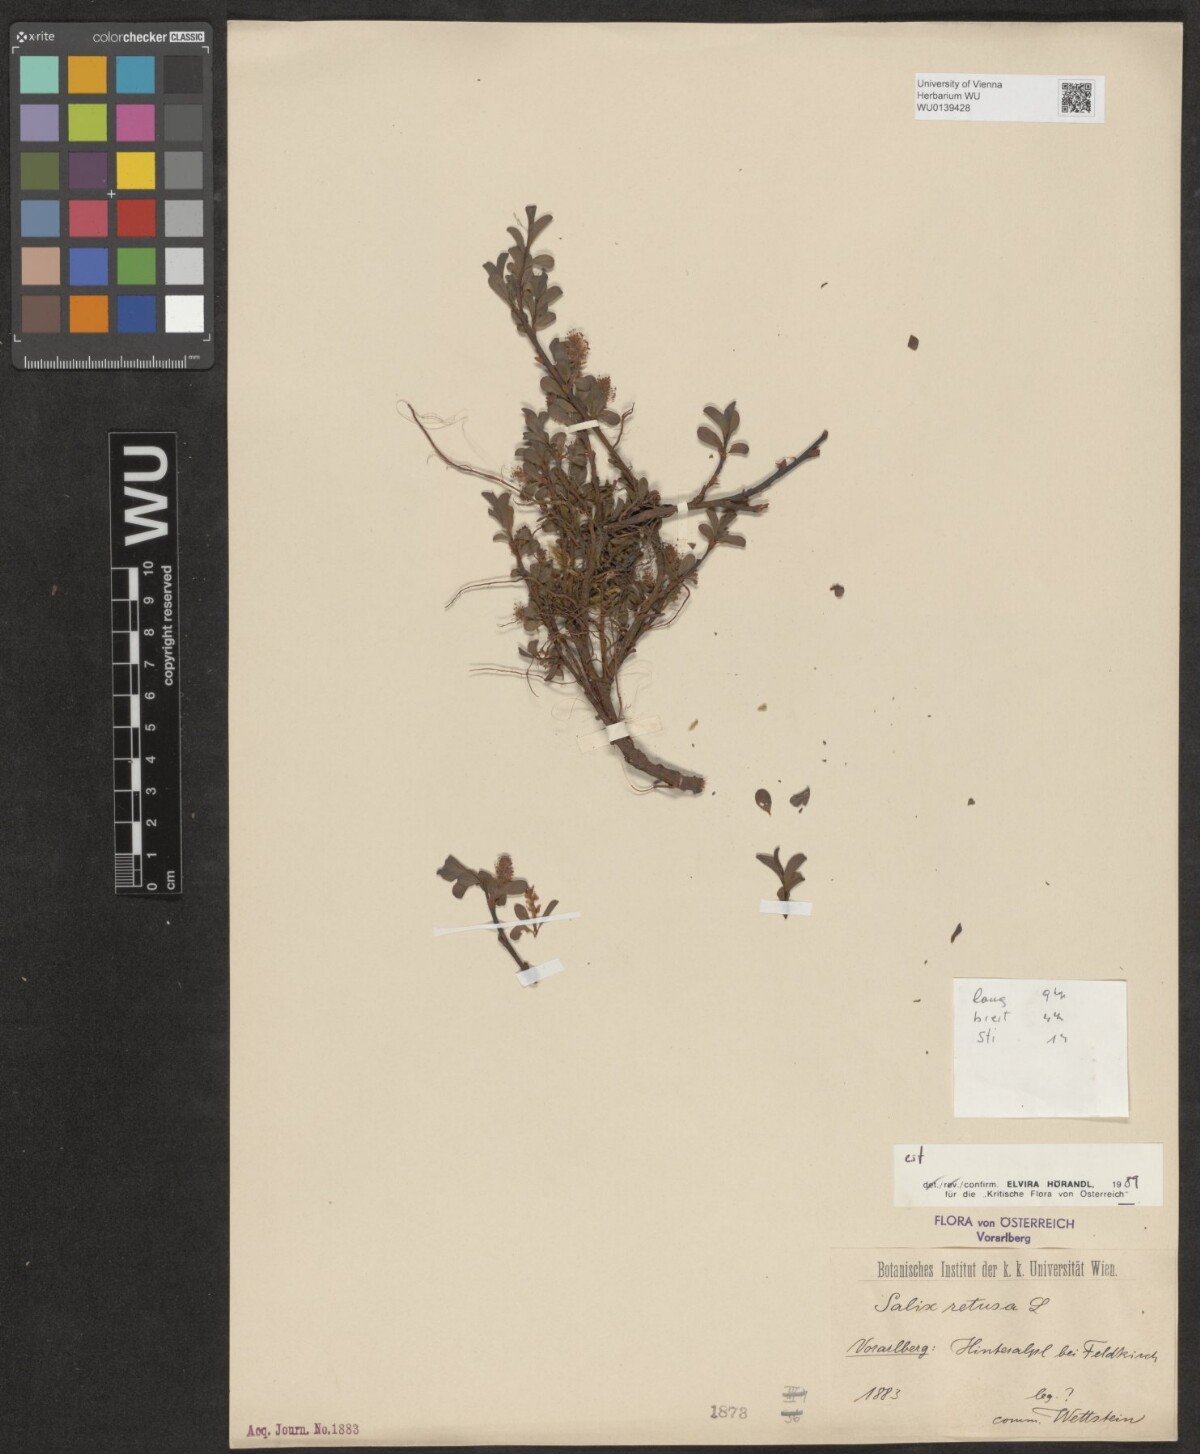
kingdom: Plantae
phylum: Tracheophyta
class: Magnoliopsida
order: Malpighiales
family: Salicaceae
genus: Salix
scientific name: Salix retusa
